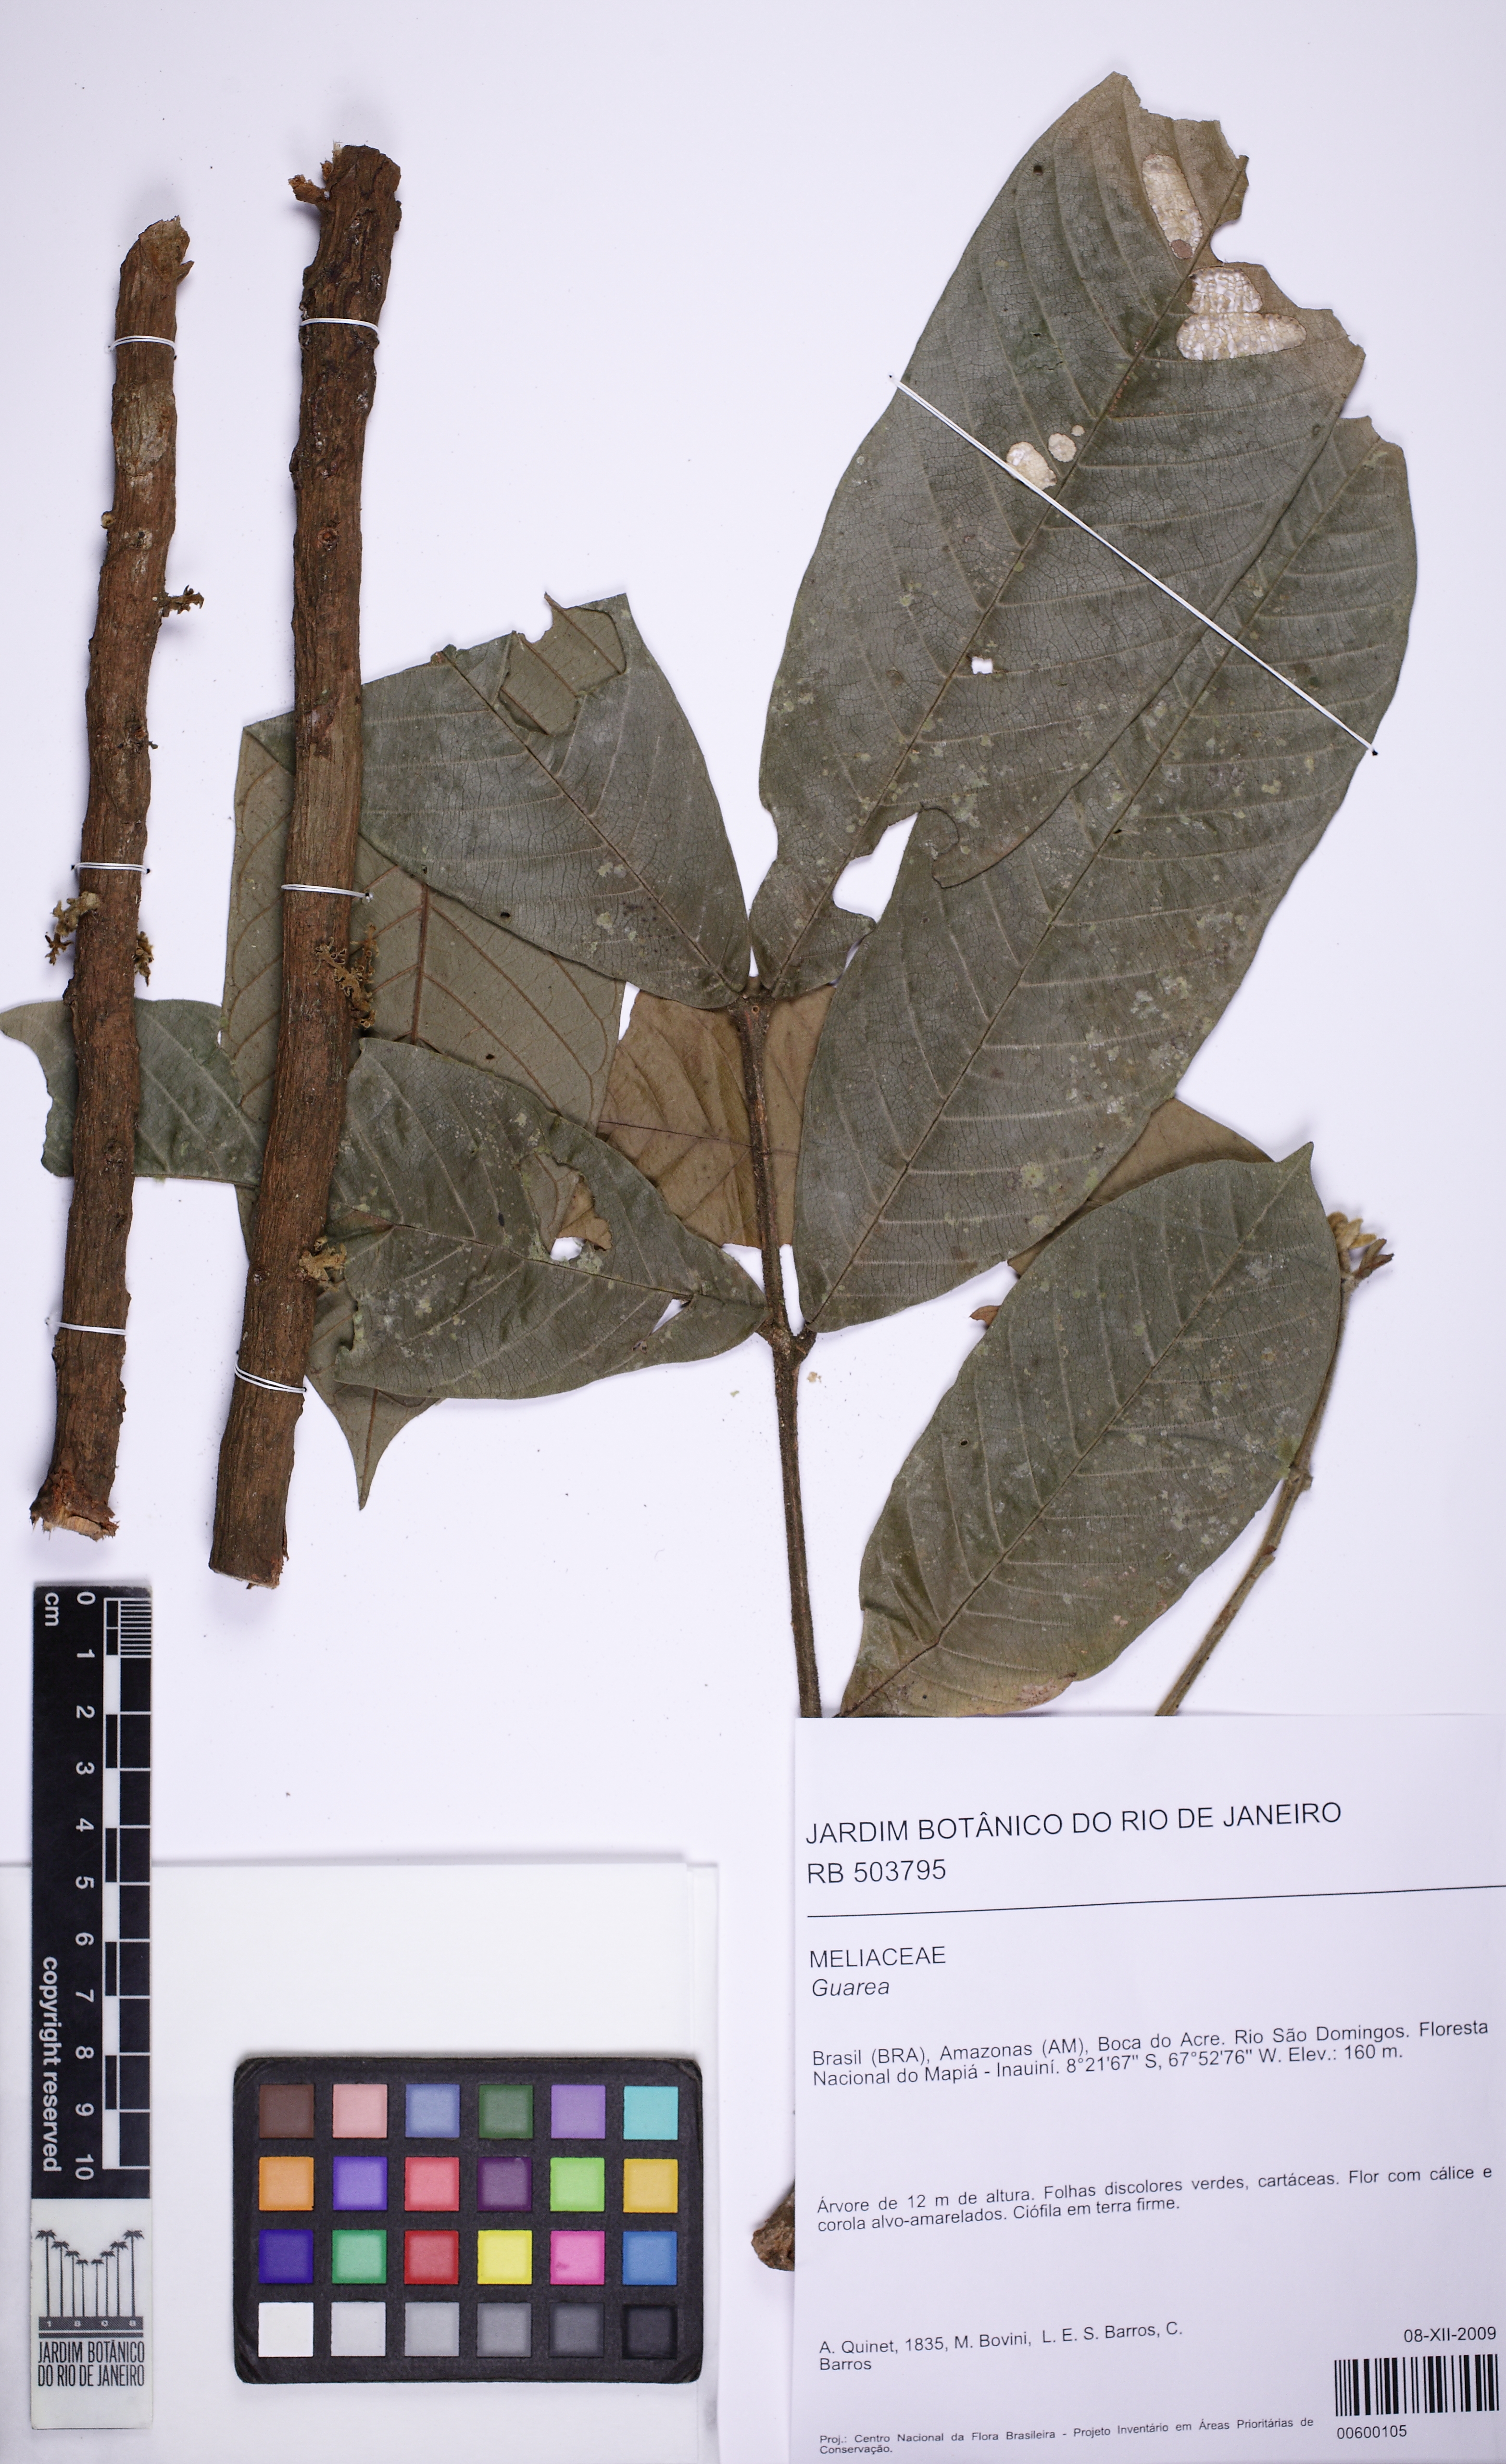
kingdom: Plantae
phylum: Tracheophyta
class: Magnoliopsida
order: Sapindales
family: Meliaceae
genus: Guarea
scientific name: Guarea
